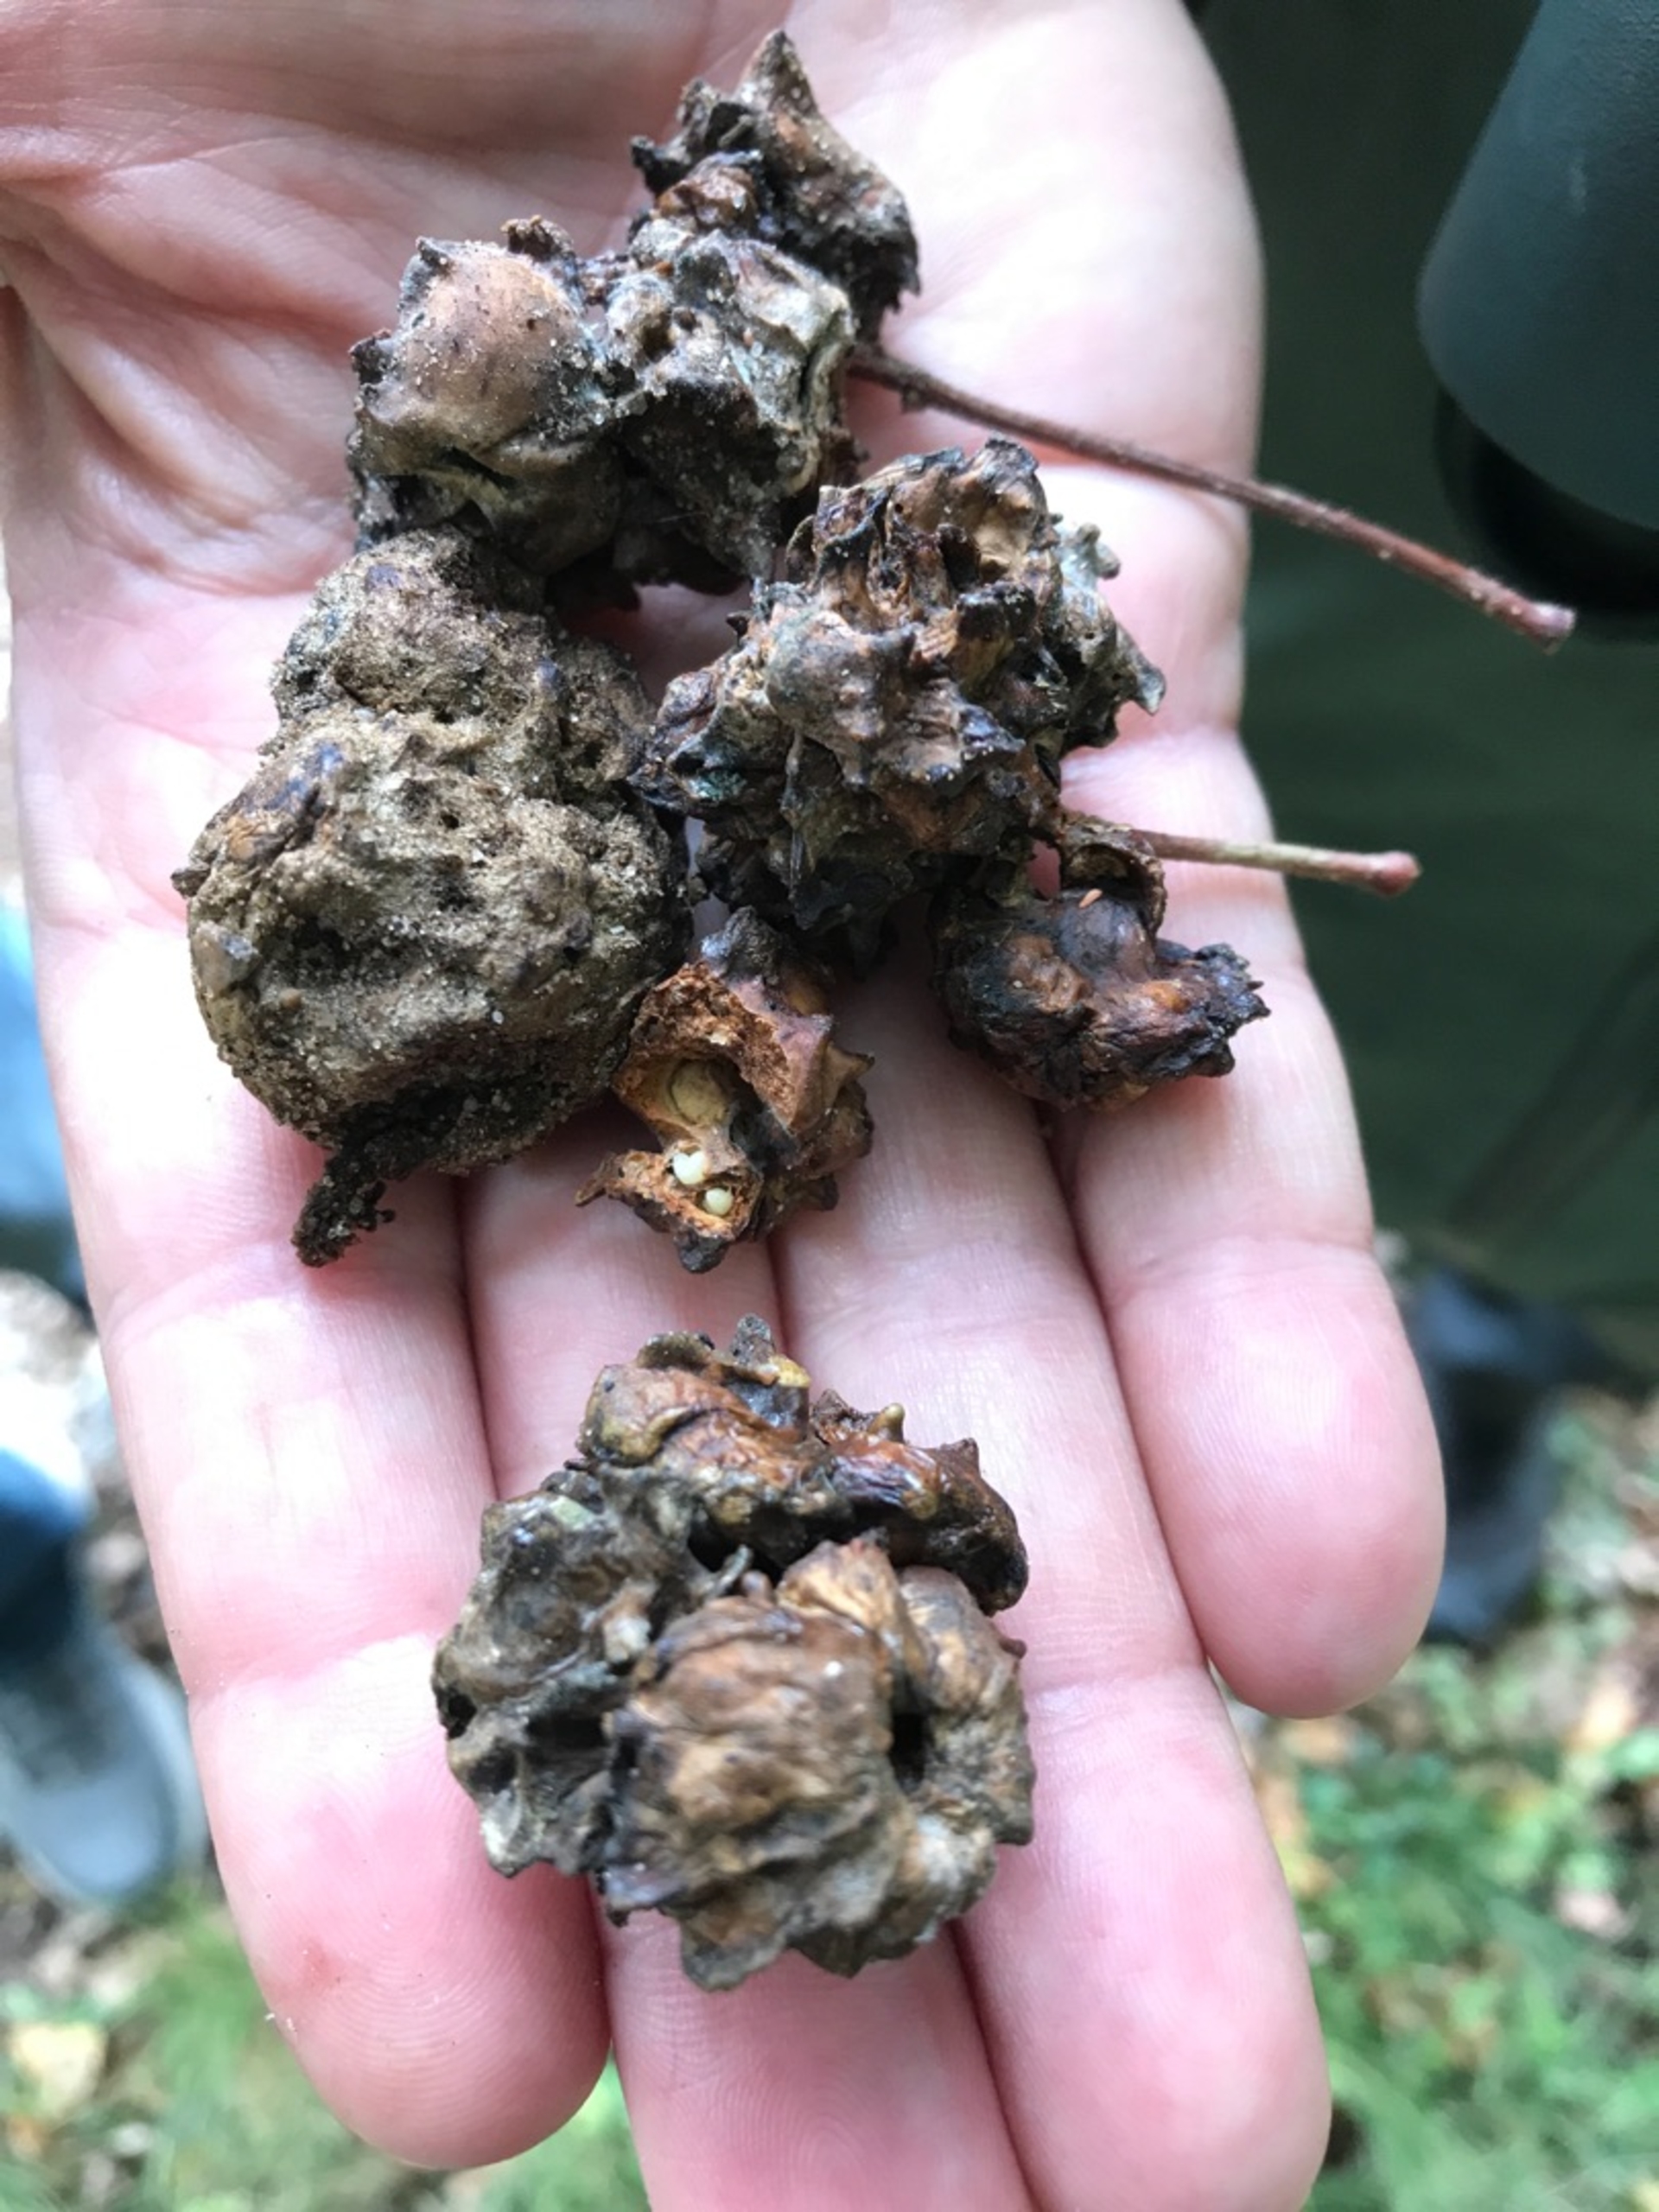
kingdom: Animalia
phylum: Arthropoda
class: Insecta
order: Hymenoptera
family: Cynipidae
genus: Andricus
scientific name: Andricus quercuscalicis
